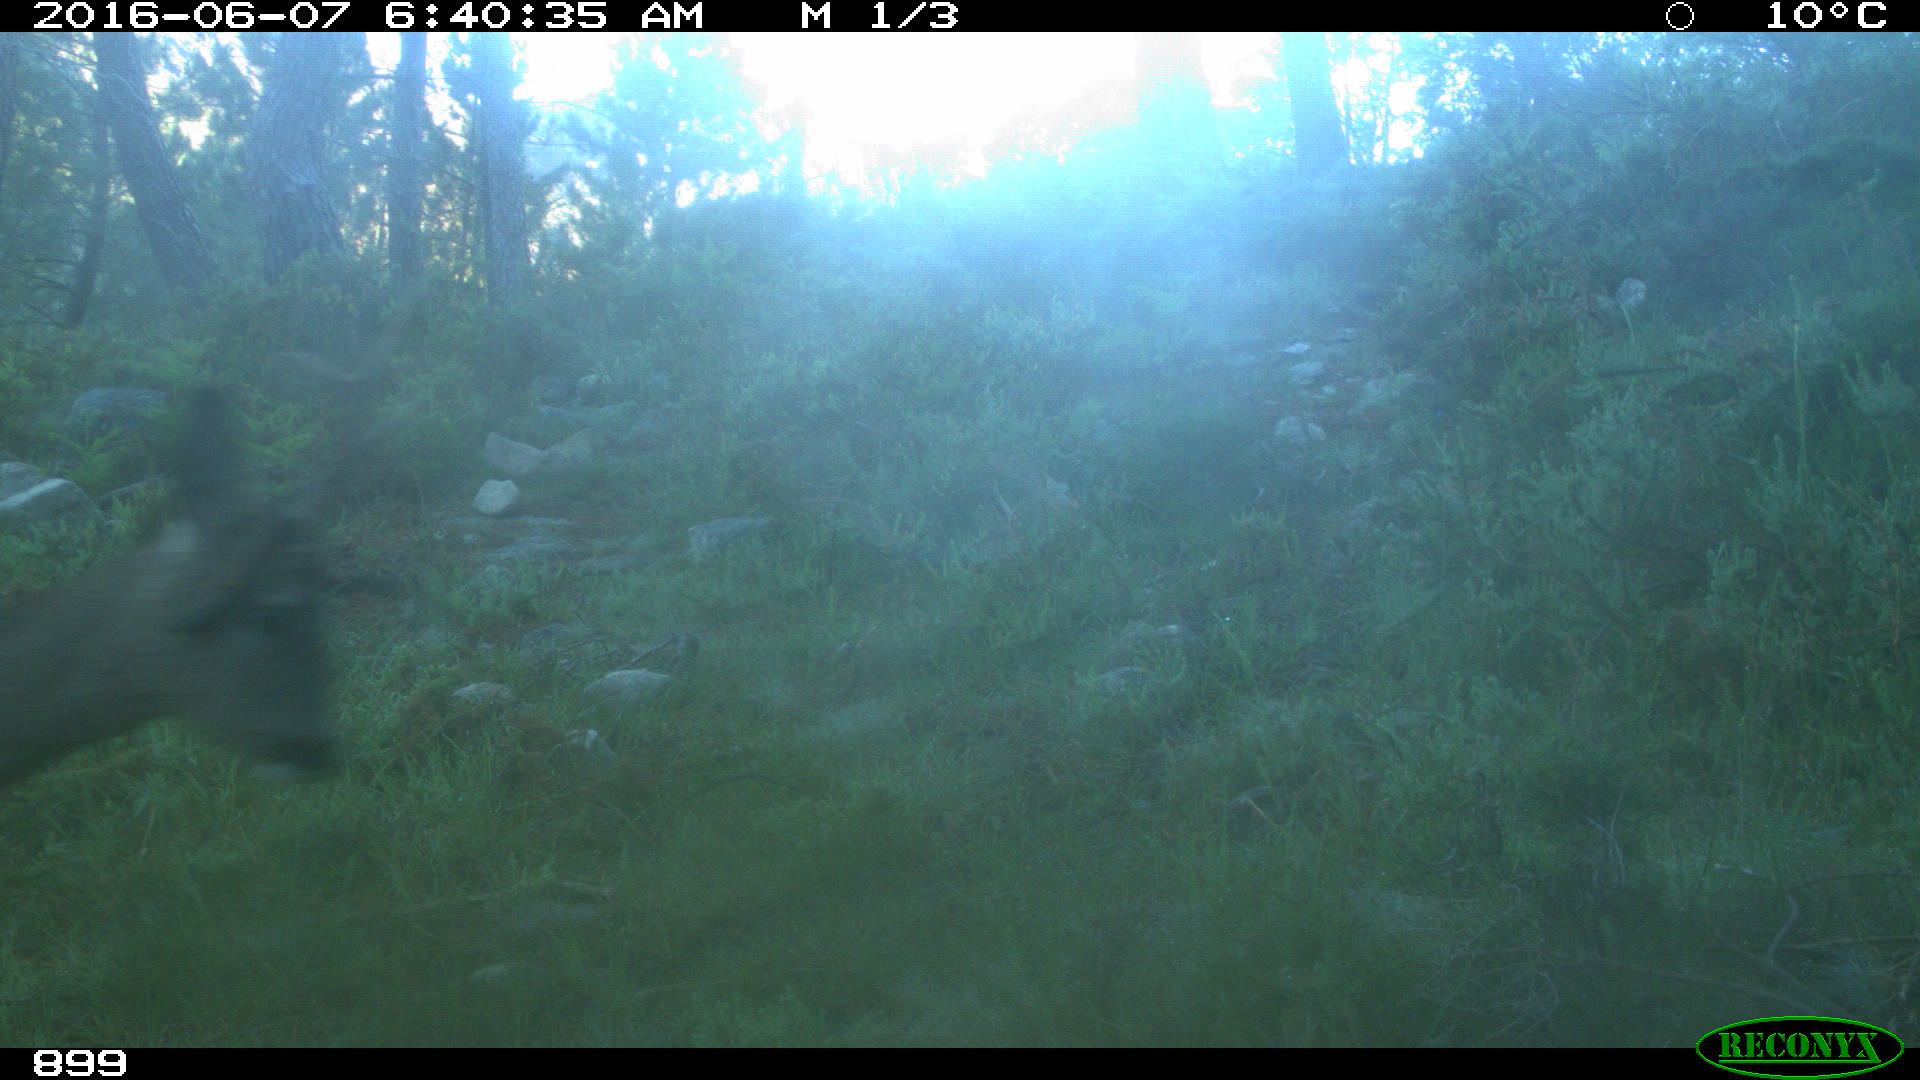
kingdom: Animalia
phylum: Chordata
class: Mammalia
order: Artiodactyla
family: Cervidae
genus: Capreolus
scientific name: Capreolus capreolus
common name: Western roe deer
